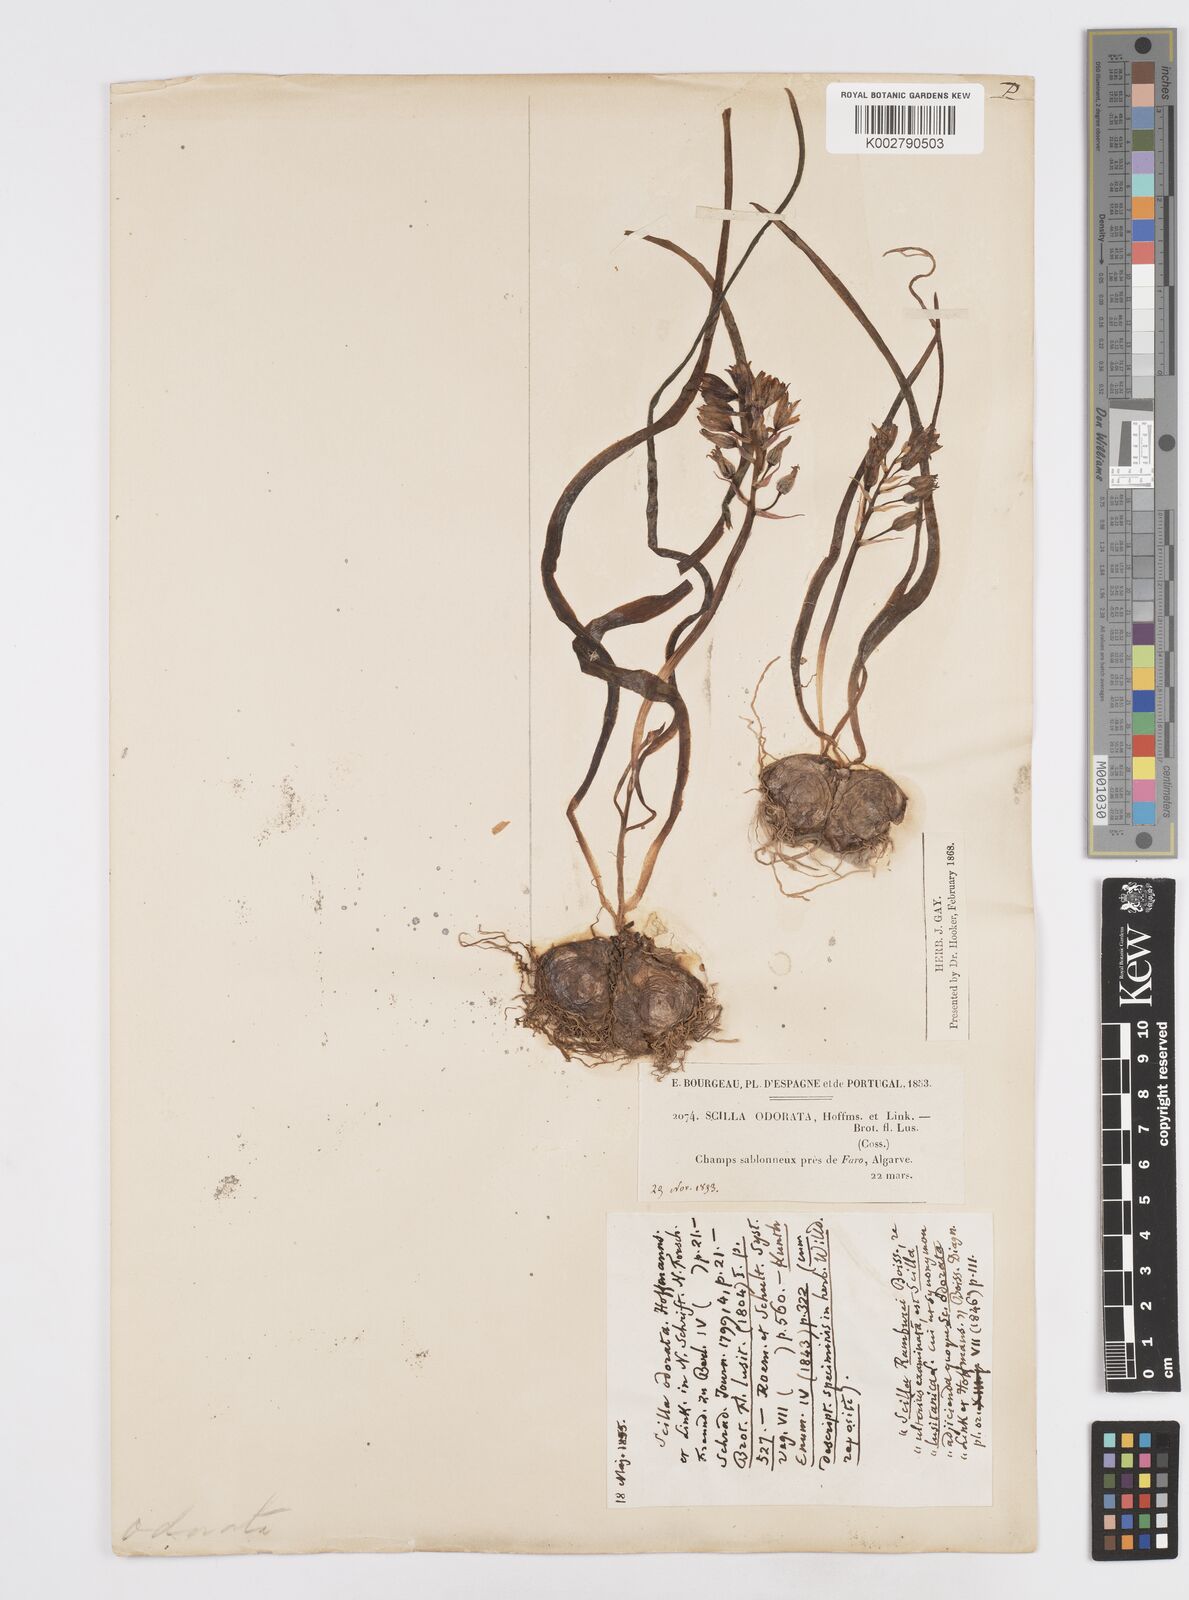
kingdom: Plantae
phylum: Tracheophyta
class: Liliopsida
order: Asparagales
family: Asparagaceae
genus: Scilla
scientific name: Scilla verna
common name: Spring squill
